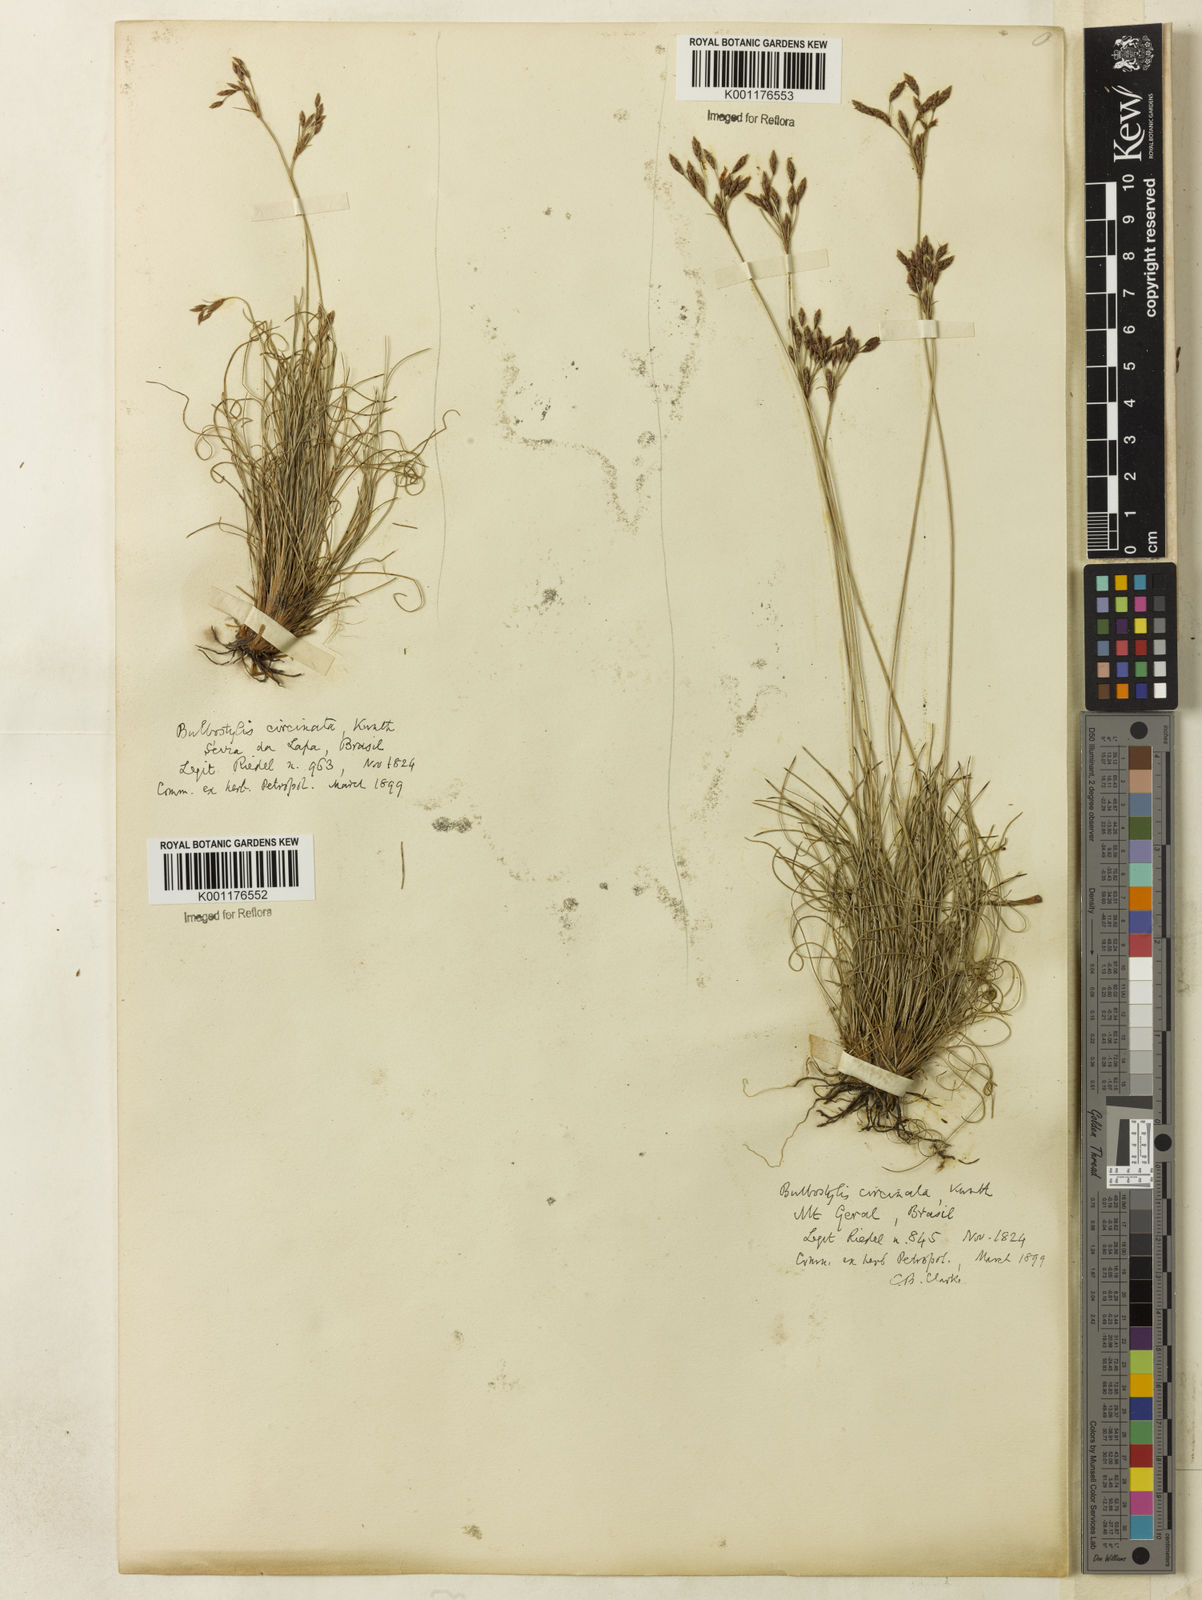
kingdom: Plantae
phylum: Tracheophyta
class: Liliopsida
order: Poales
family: Cyperaceae
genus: Bulbostylis
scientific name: Bulbostylis circinata
